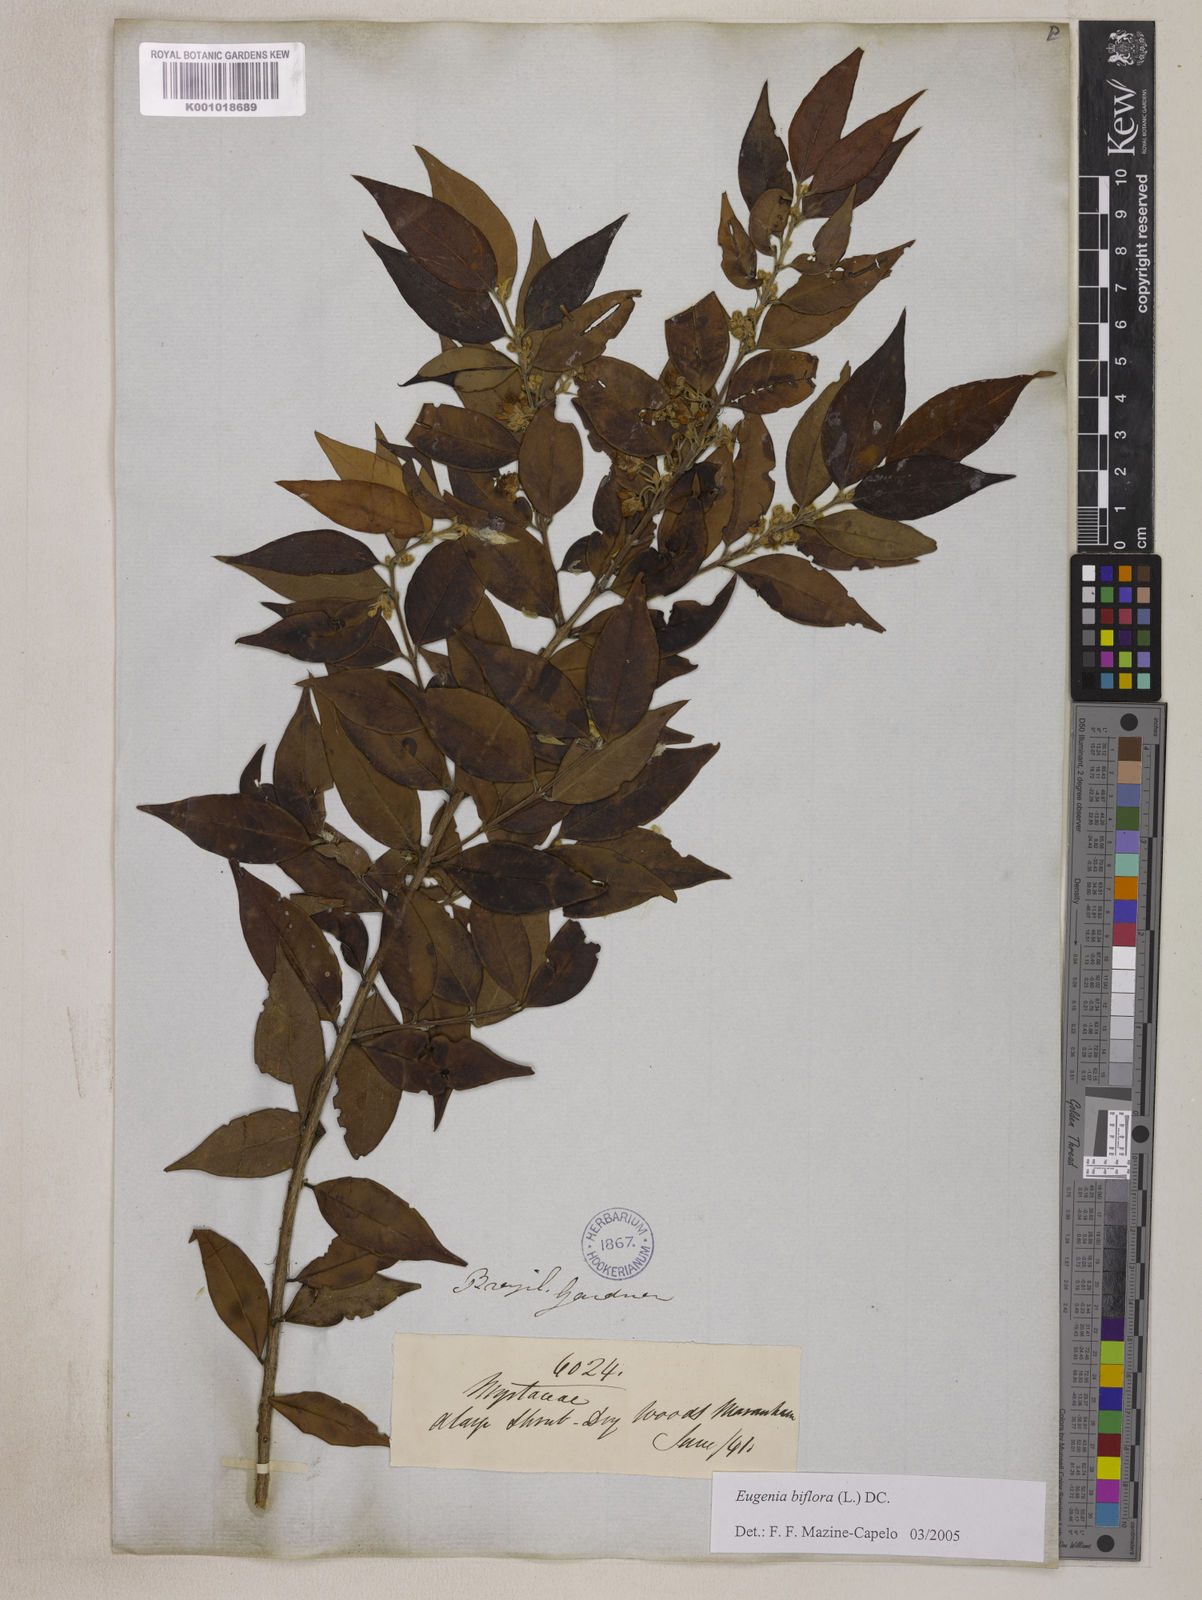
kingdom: Plantae
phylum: Tracheophyta
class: Magnoliopsida
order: Myrtales
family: Myrtaceae
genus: Eugenia
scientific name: Eugenia biflora
